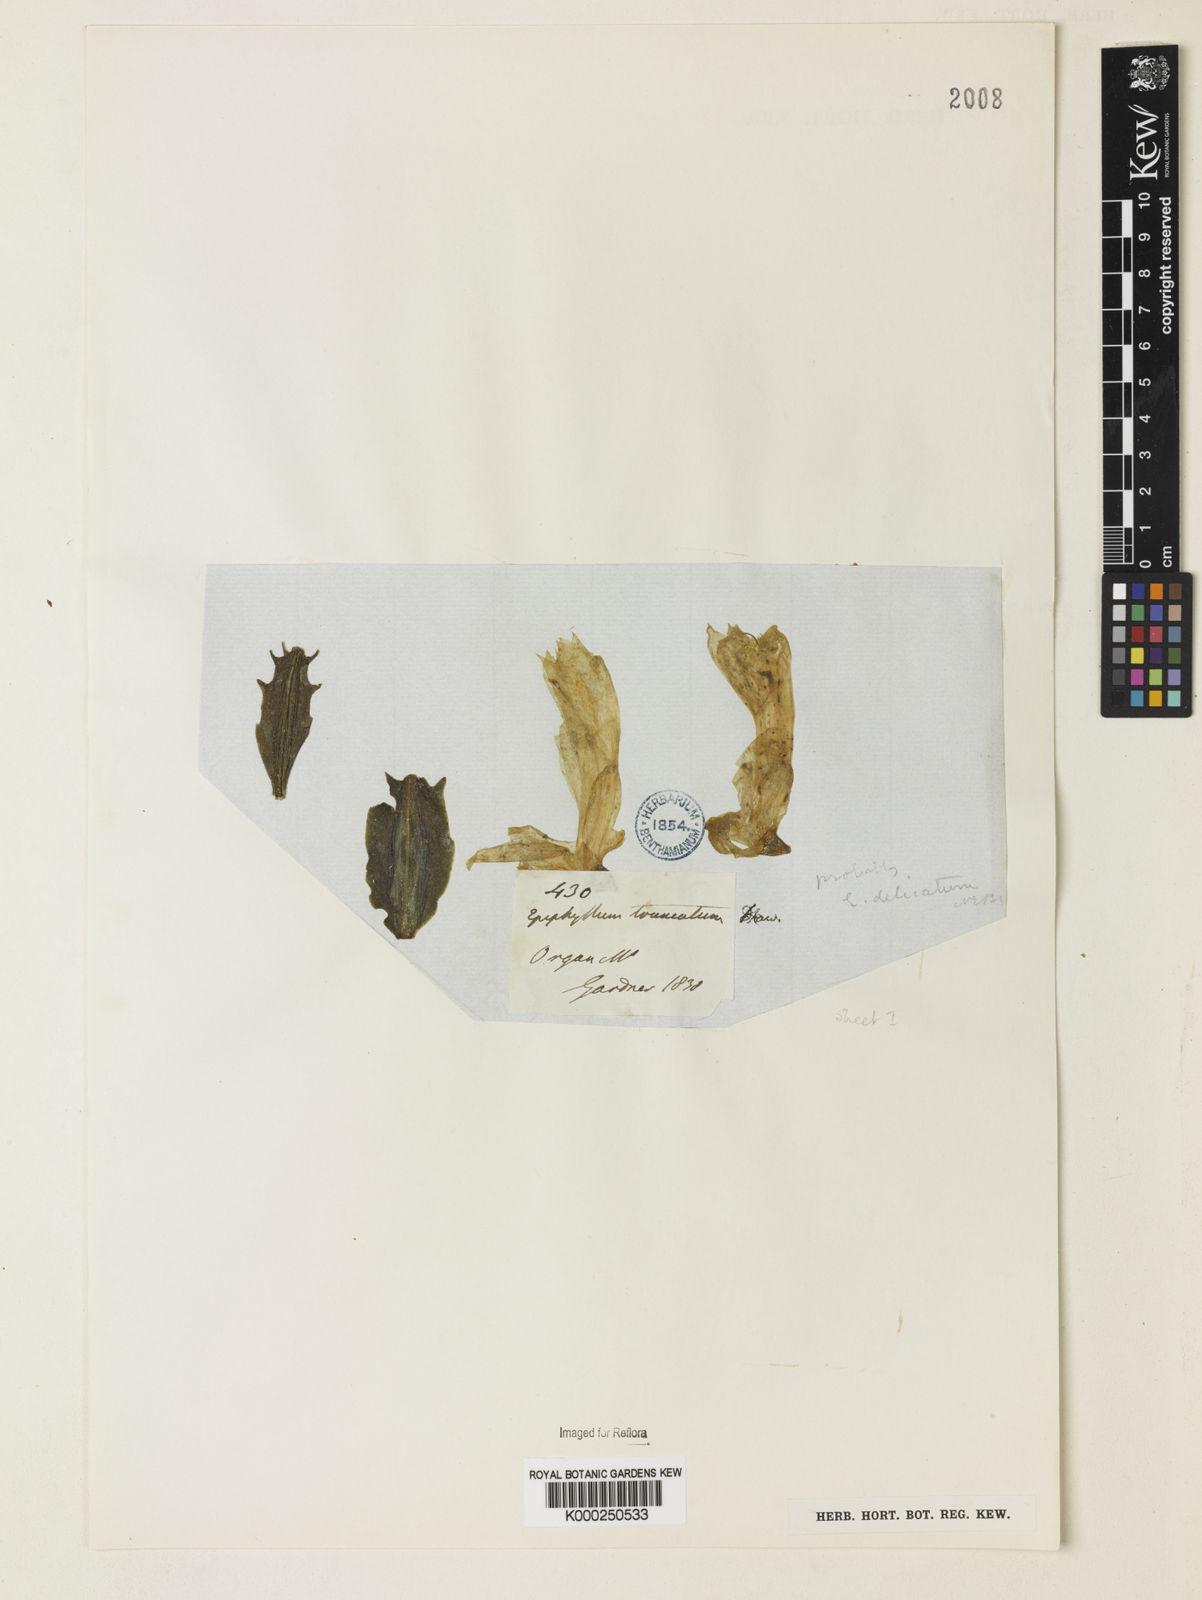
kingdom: Plantae
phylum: Tracheophyta
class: Magnoliopsida
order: Caryophyllales
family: Cactaceae
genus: Schlumbergera
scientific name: Schlumbergera truncata
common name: Thanksgiving cactus
